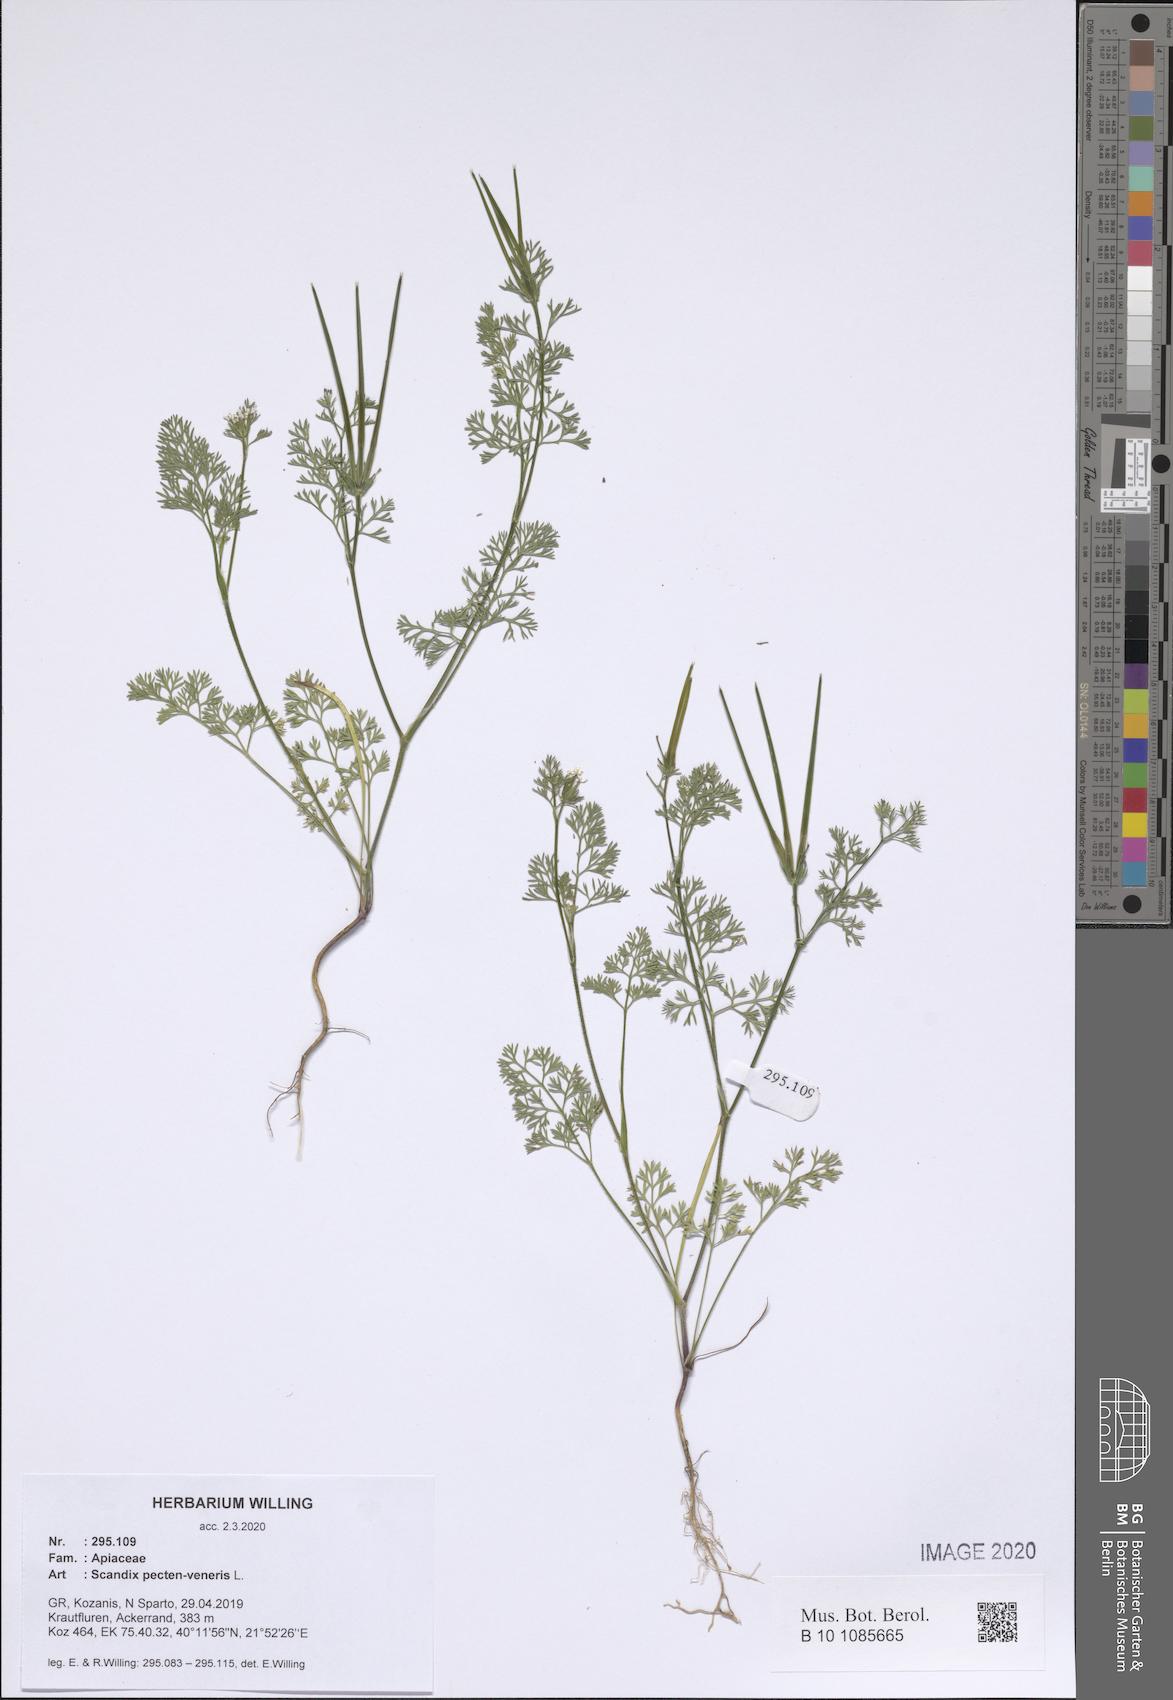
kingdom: Plantae
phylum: Tracheophyta
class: Magnoliopsida
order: Apiales
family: Apiaceae
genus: Scandix
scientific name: Scandix pecten-veneris
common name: Shepherd's-needle
